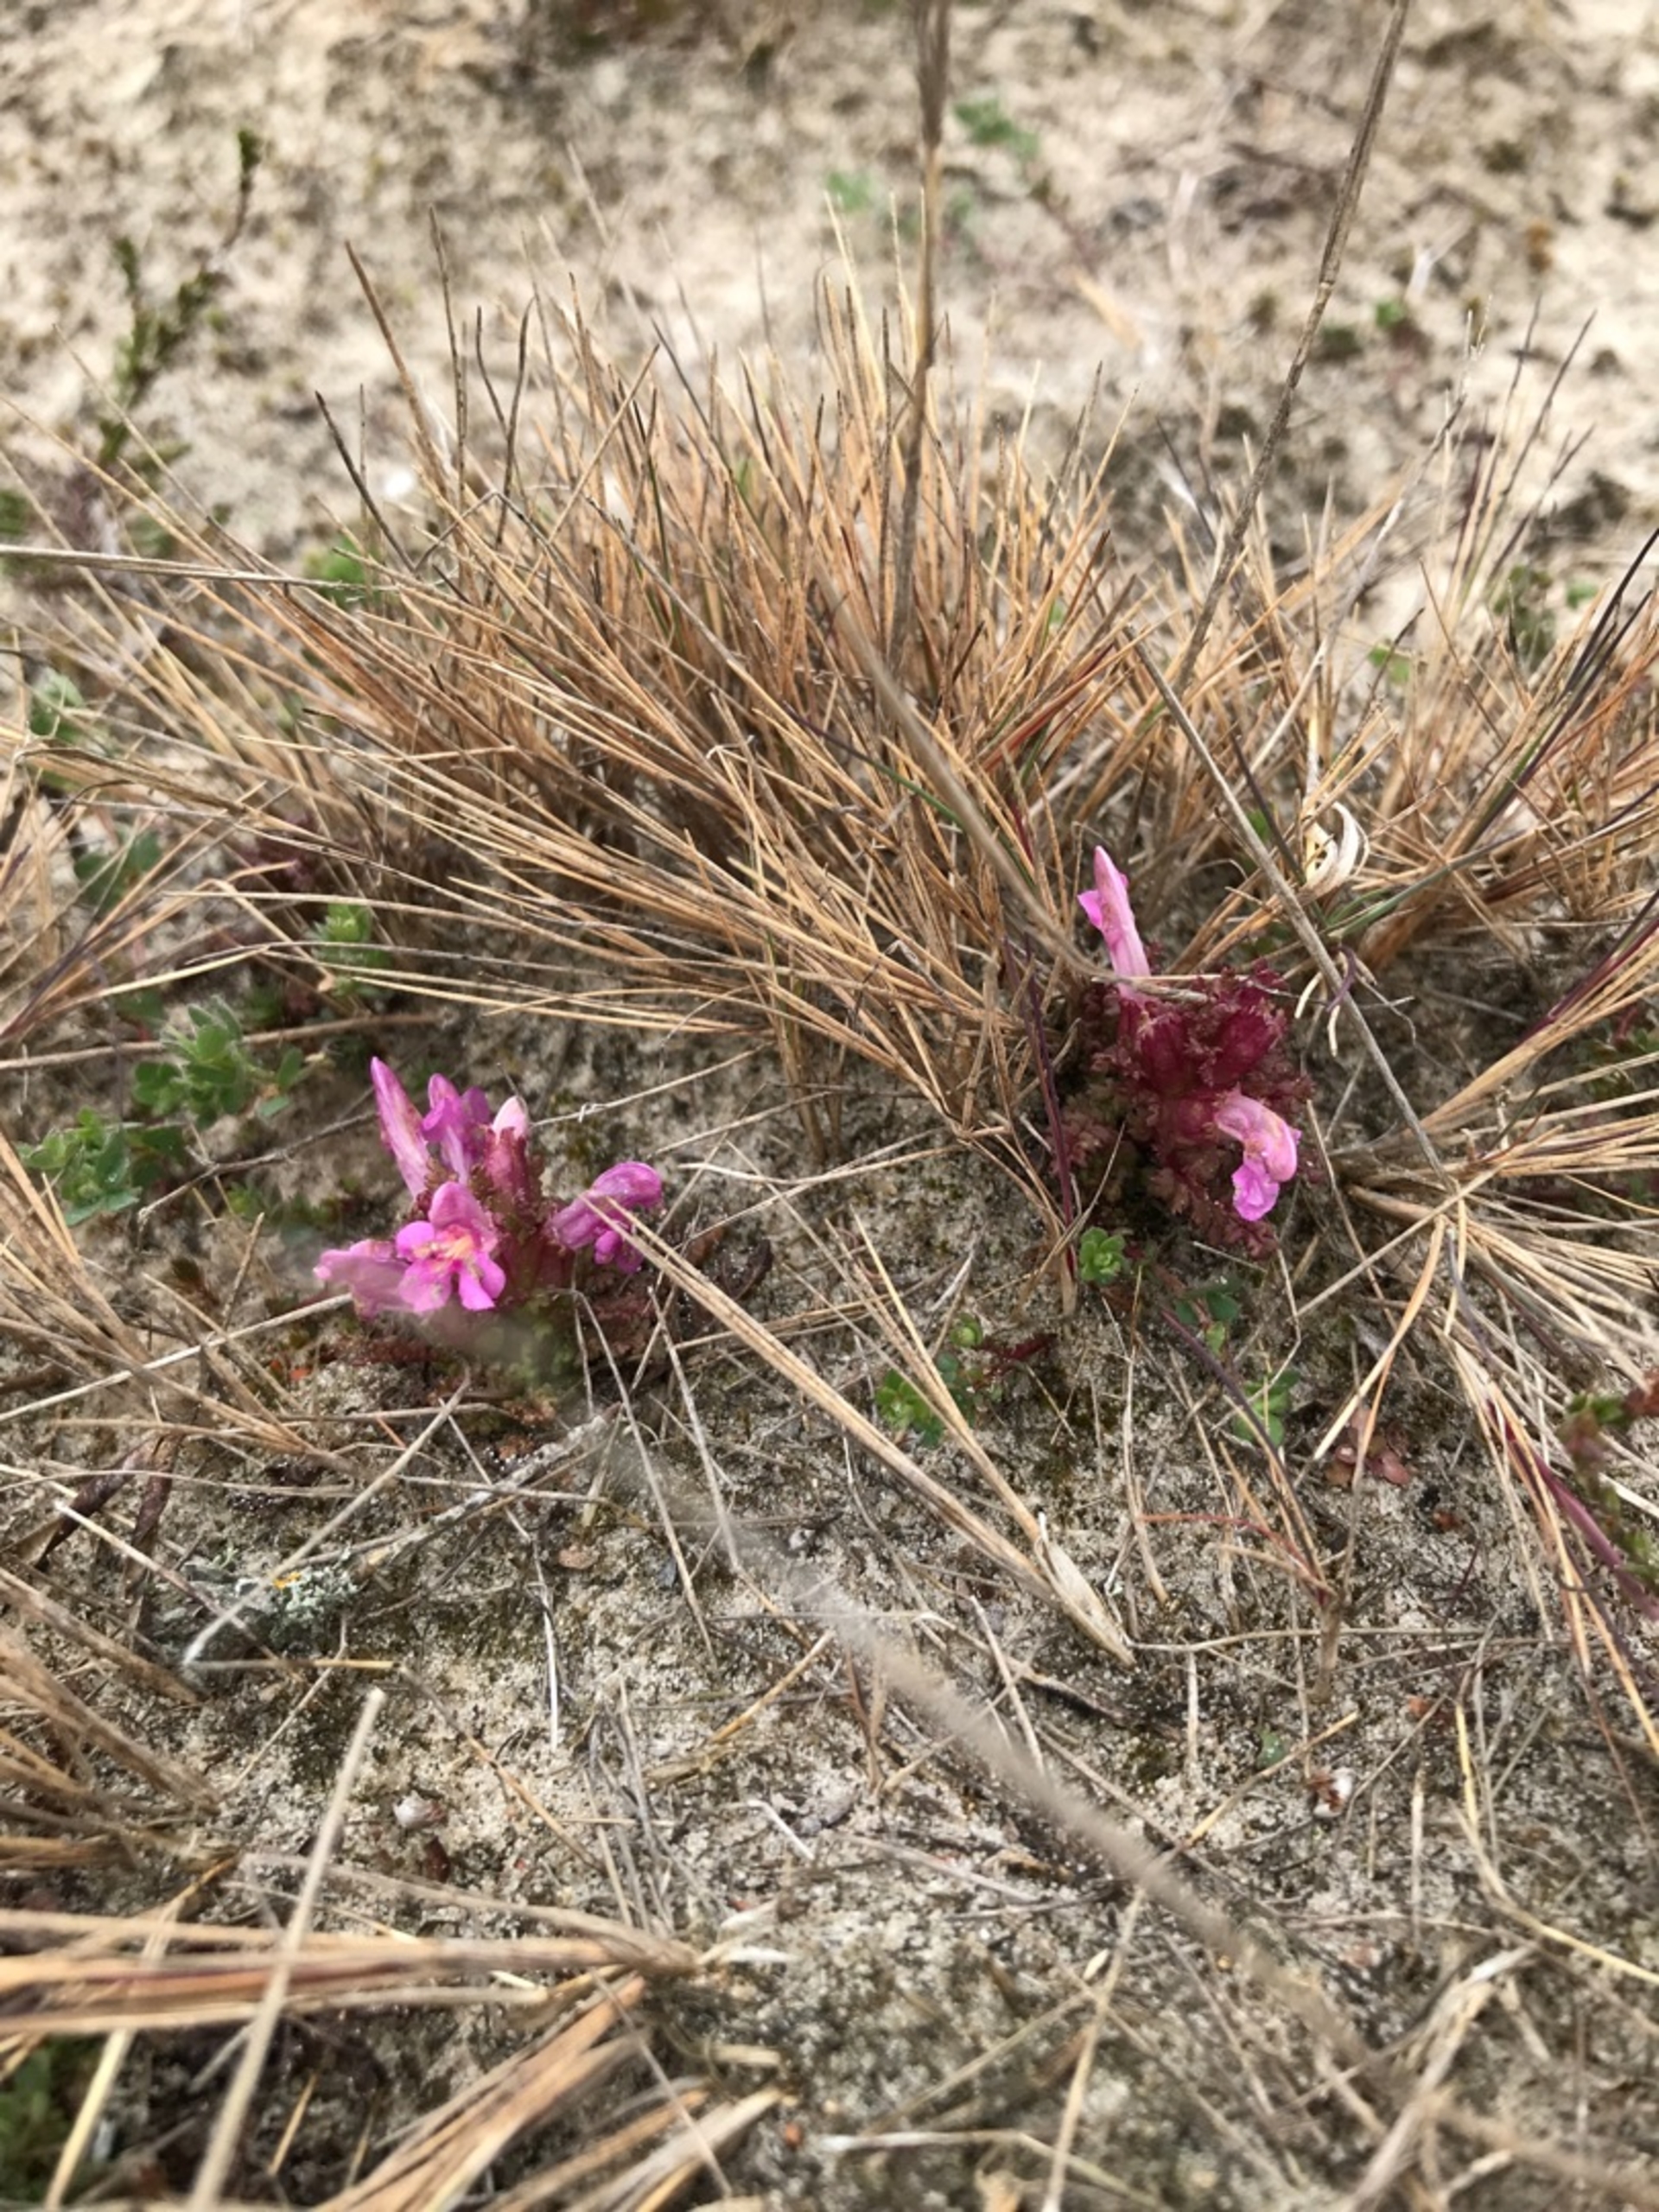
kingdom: Plantae
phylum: Tracheophyta
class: Magnoliopsida
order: Lamiales
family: Orobanchaceae
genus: Pedicularis
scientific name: Pedicularis sylvatica
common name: Mose-troldurt
